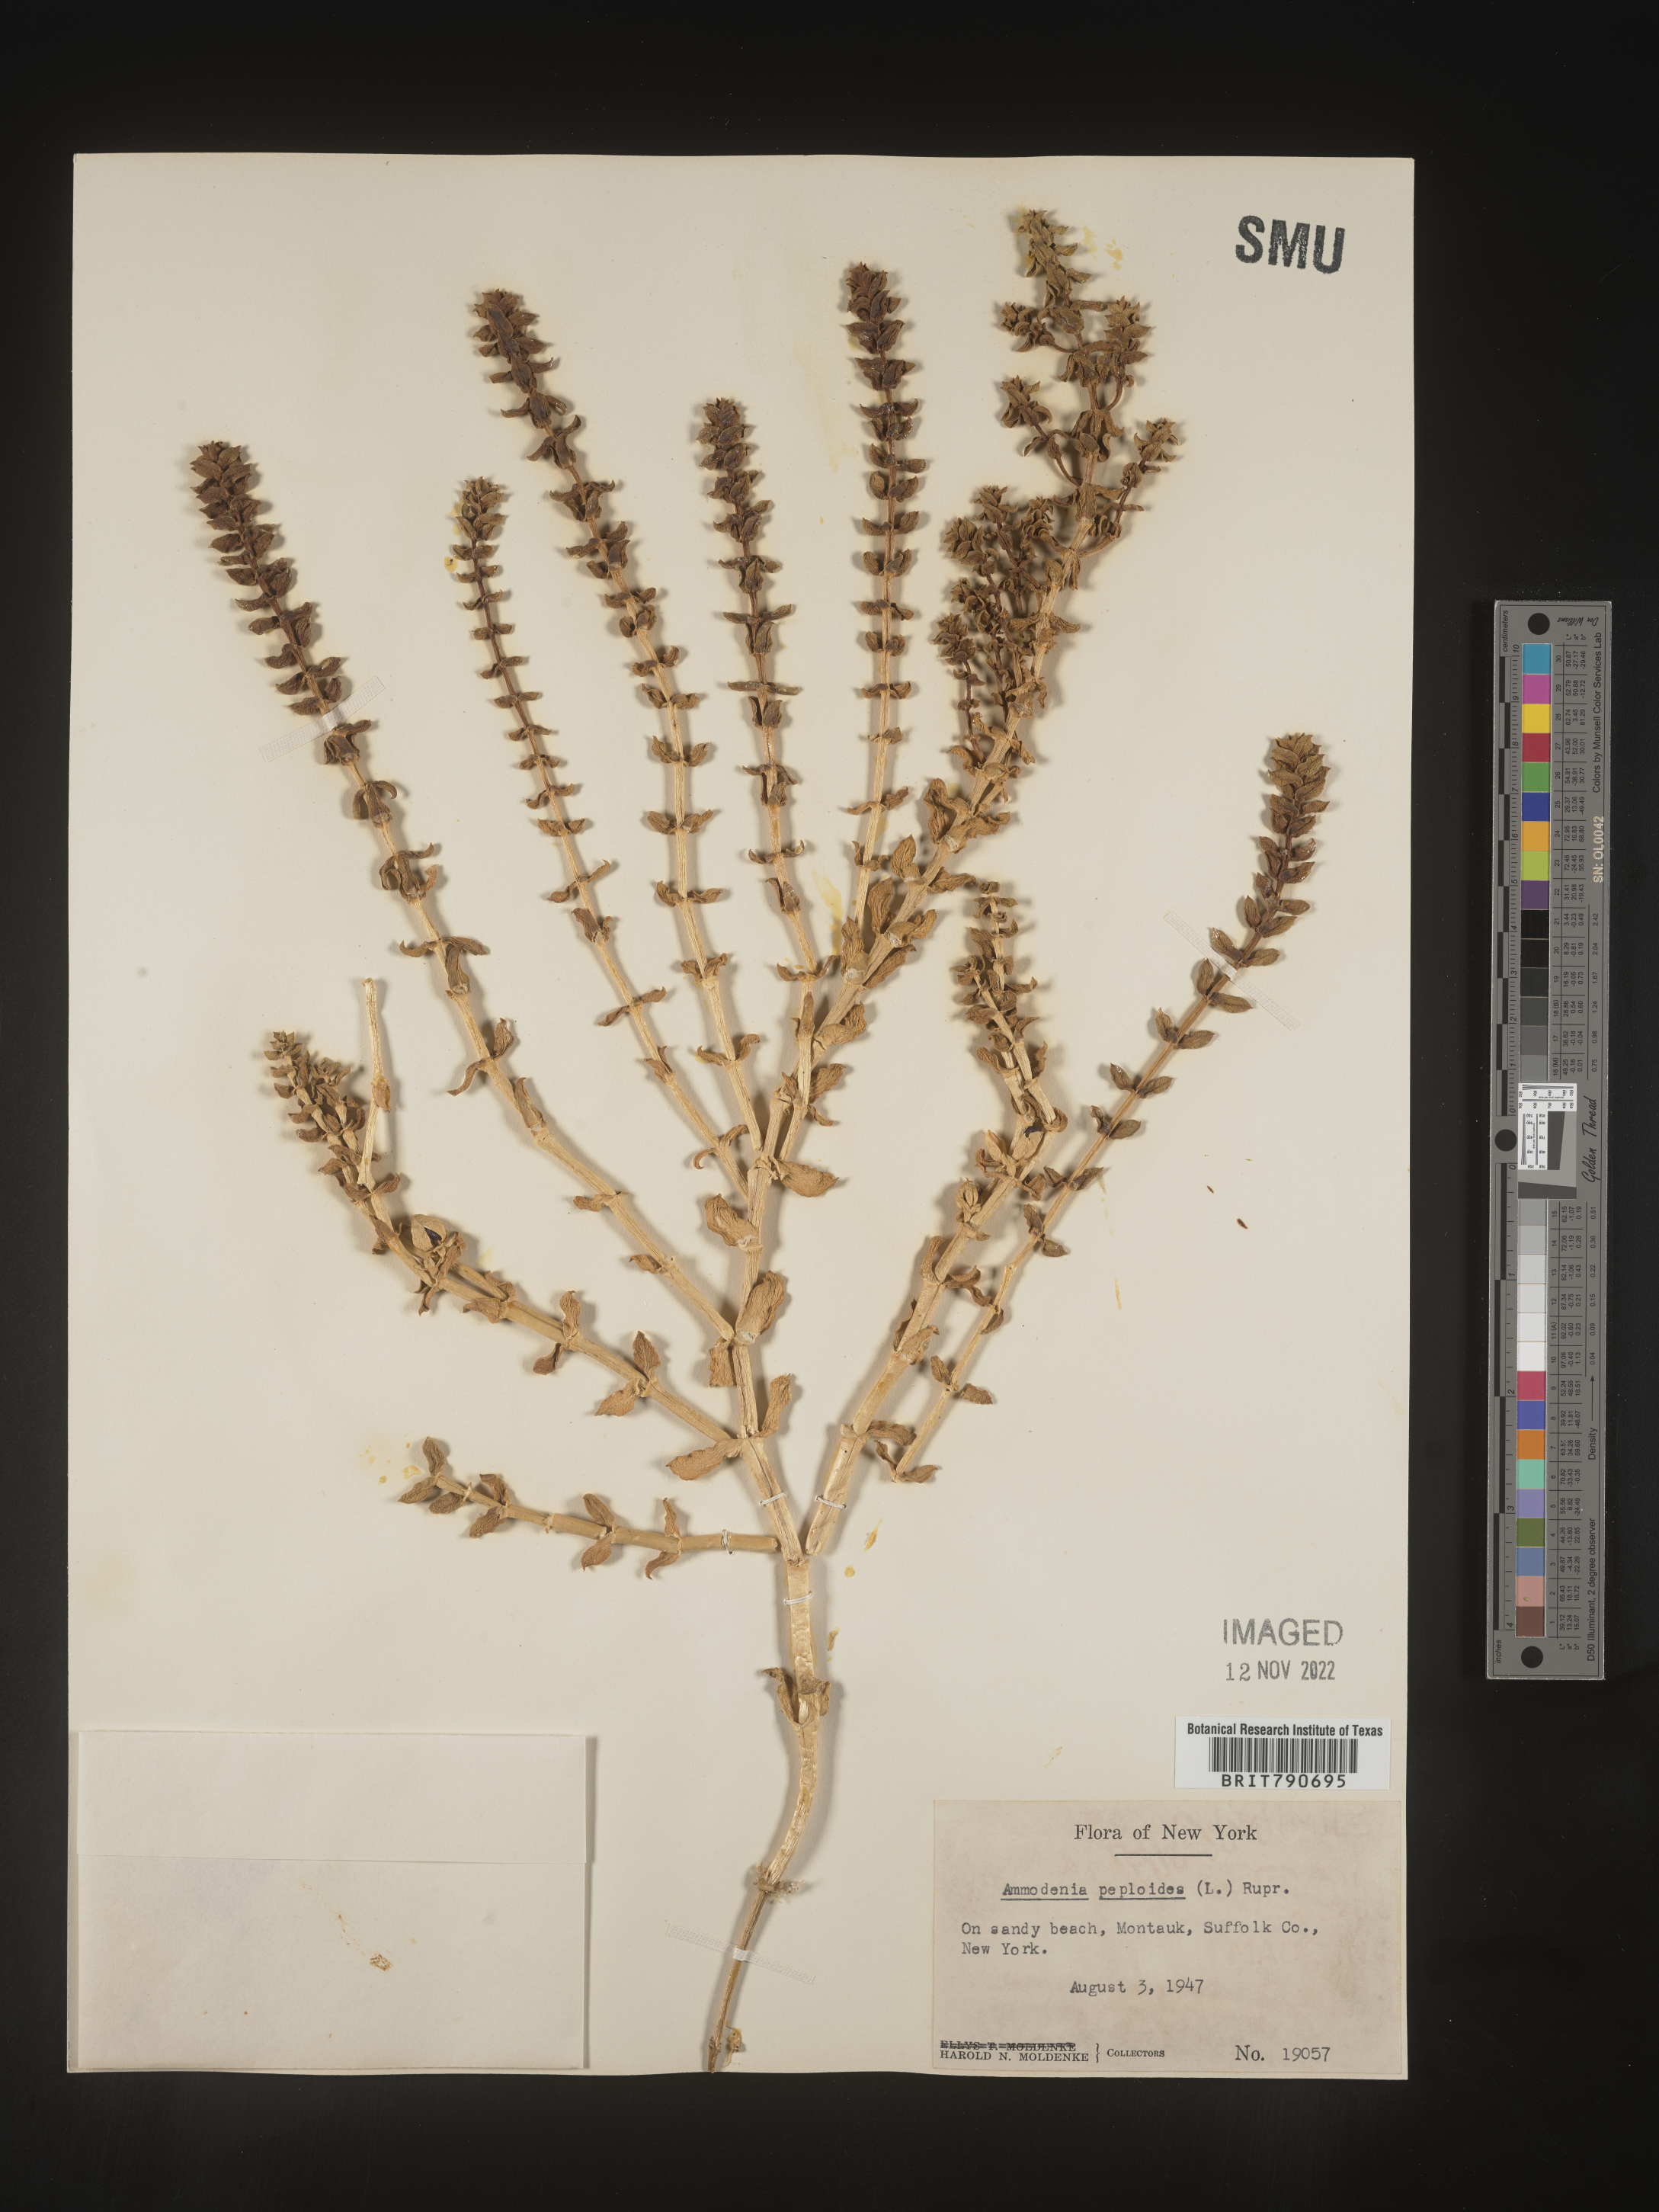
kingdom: Plantae
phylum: Tracheophyta
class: Magnoliopsida
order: Malvales
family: Malvaceae
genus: Clappertonia
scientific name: Clappertonia
